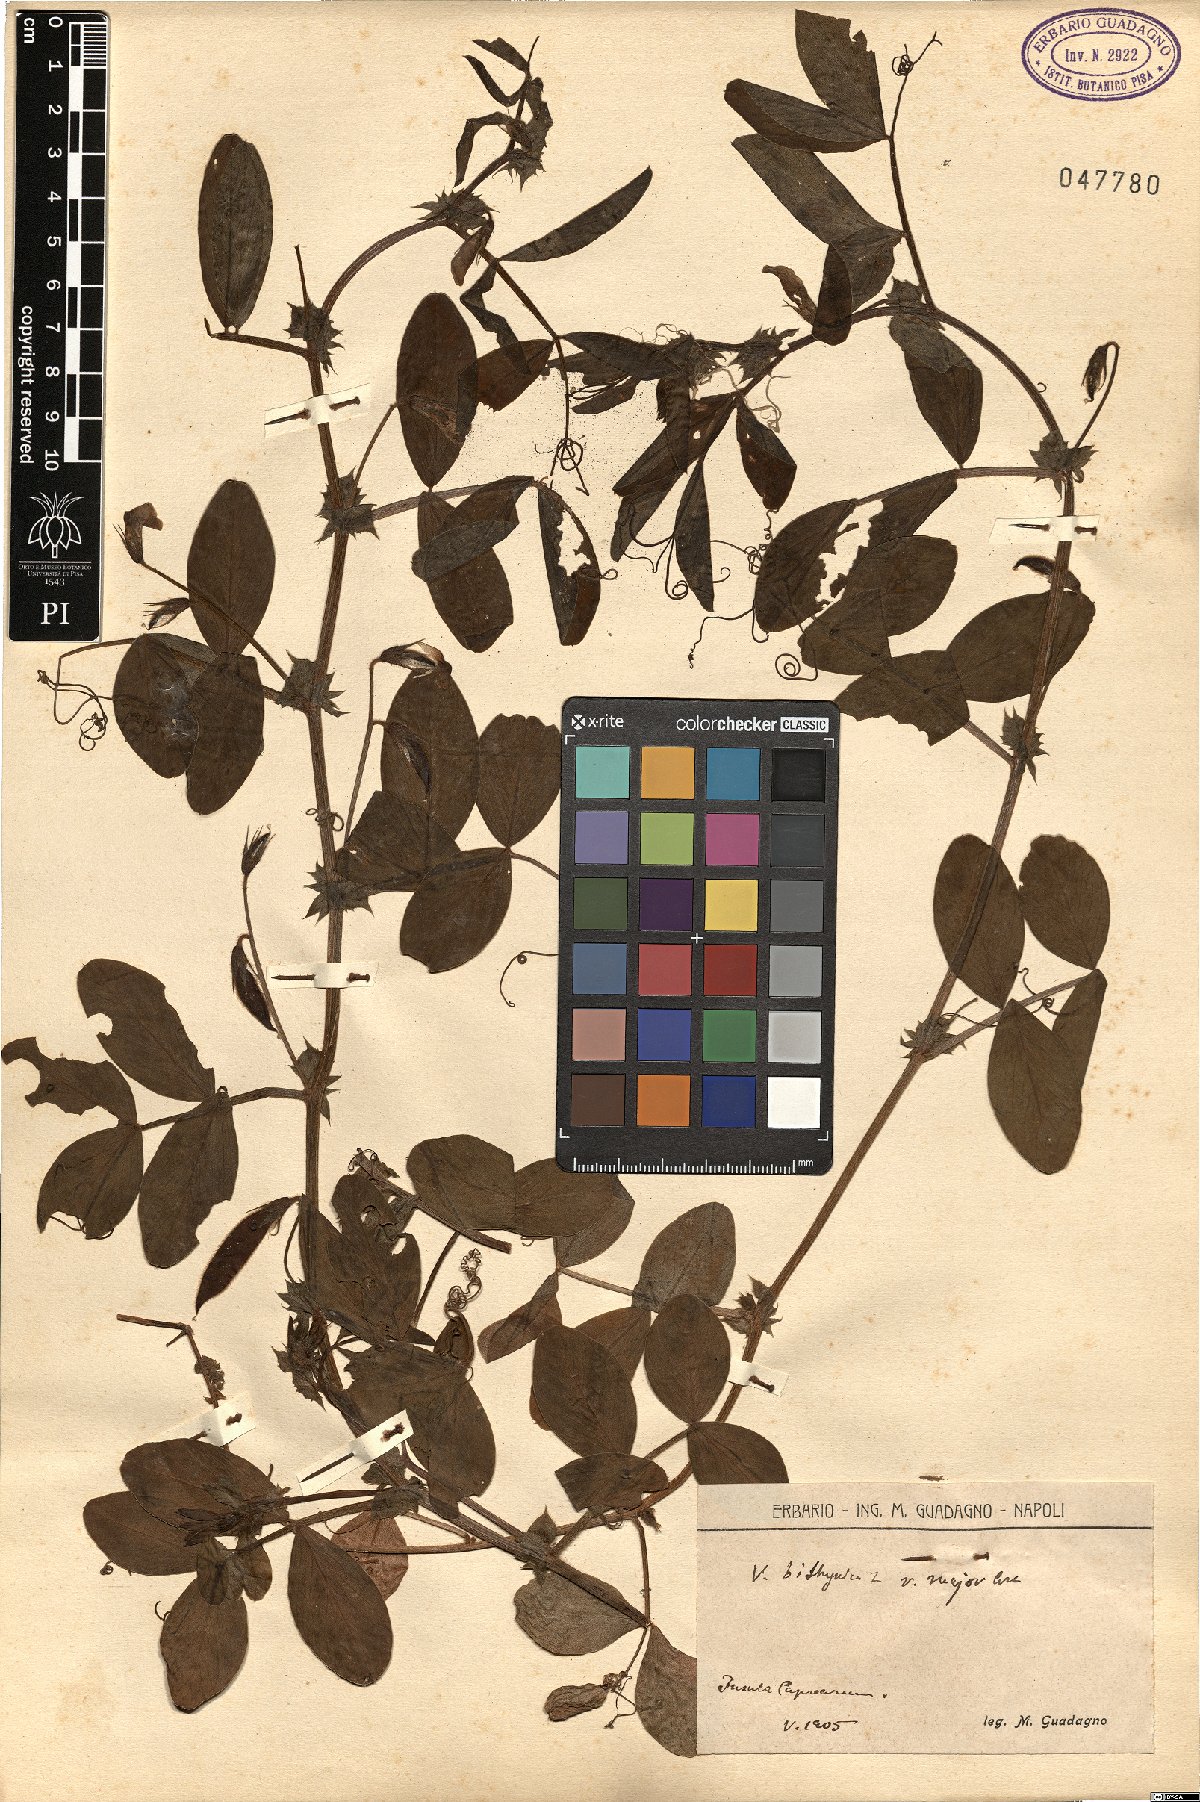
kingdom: Plantae
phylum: Tracheophyta
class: Magnoliopsida
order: Fabales
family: Fabaceae
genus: Vicia
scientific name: Vicia bithynica
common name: Bithynian vetch
